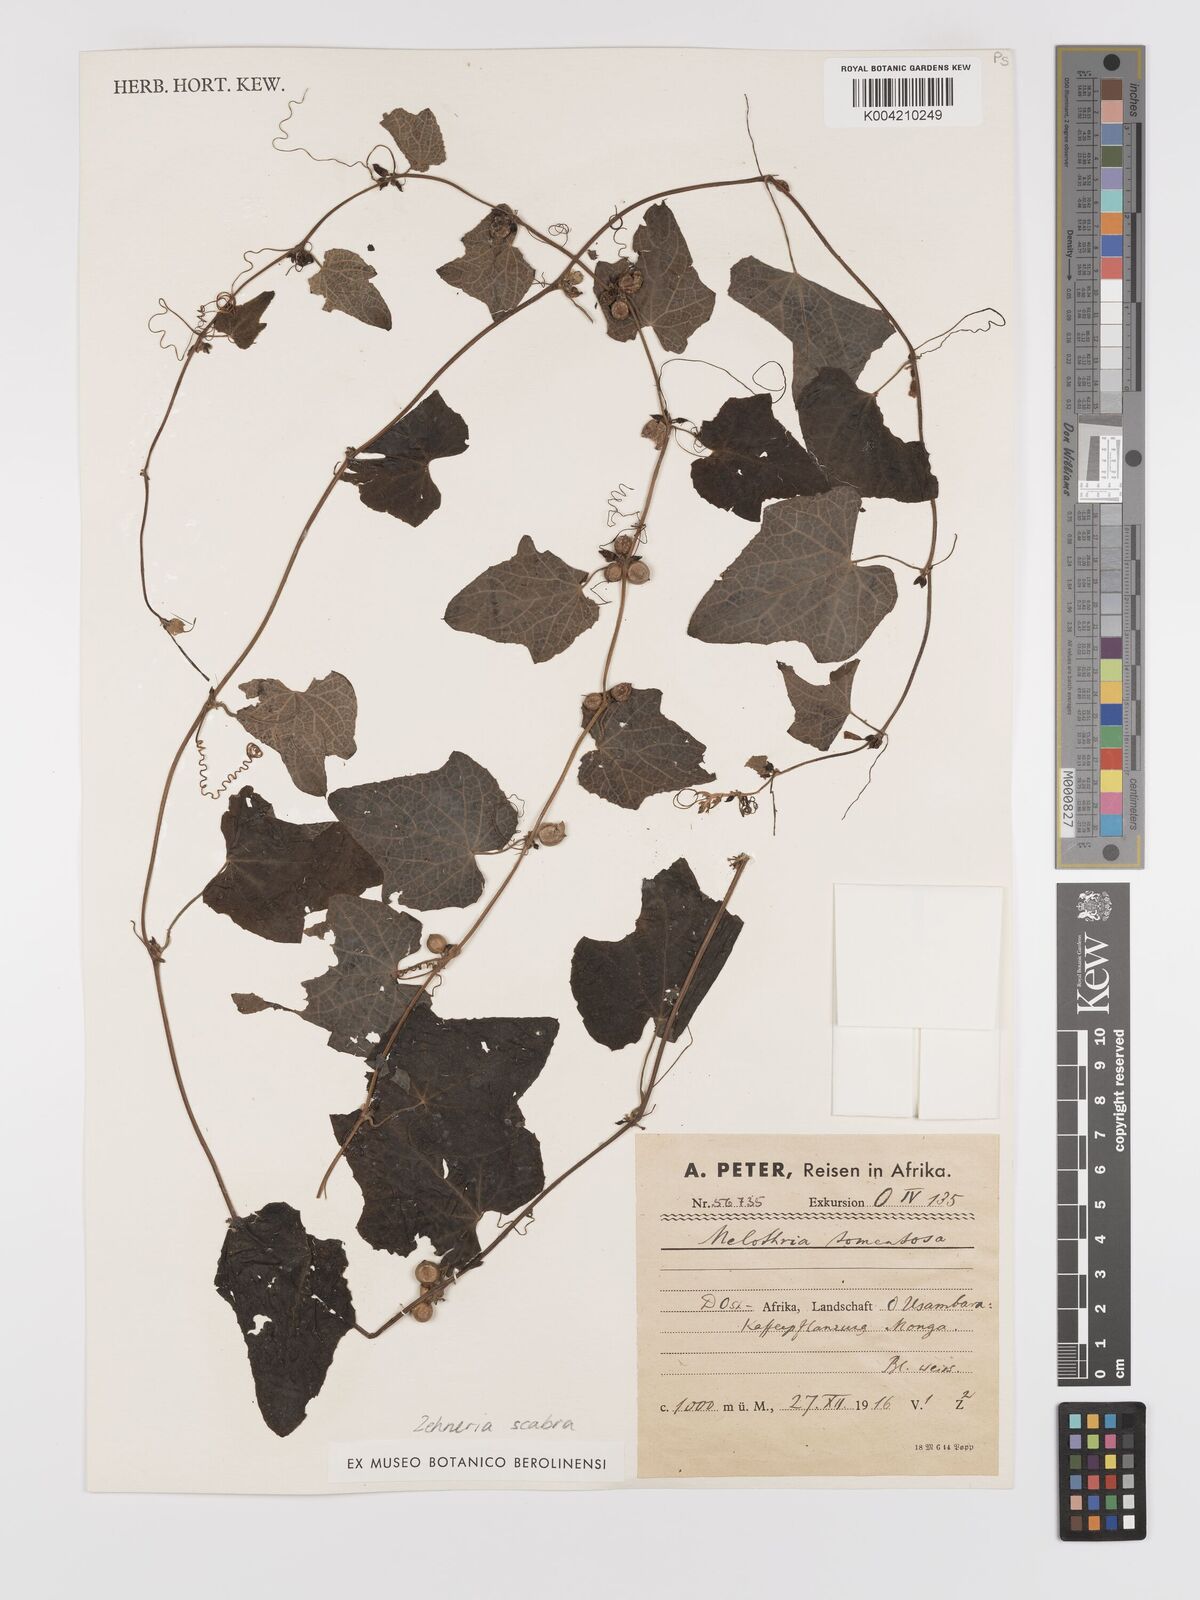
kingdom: Plantae
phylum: Tracheophyta
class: Magnoliopsida
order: Cucurbitales
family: Cucurbitaceae
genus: Zehneria
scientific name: Zehneria scabra
